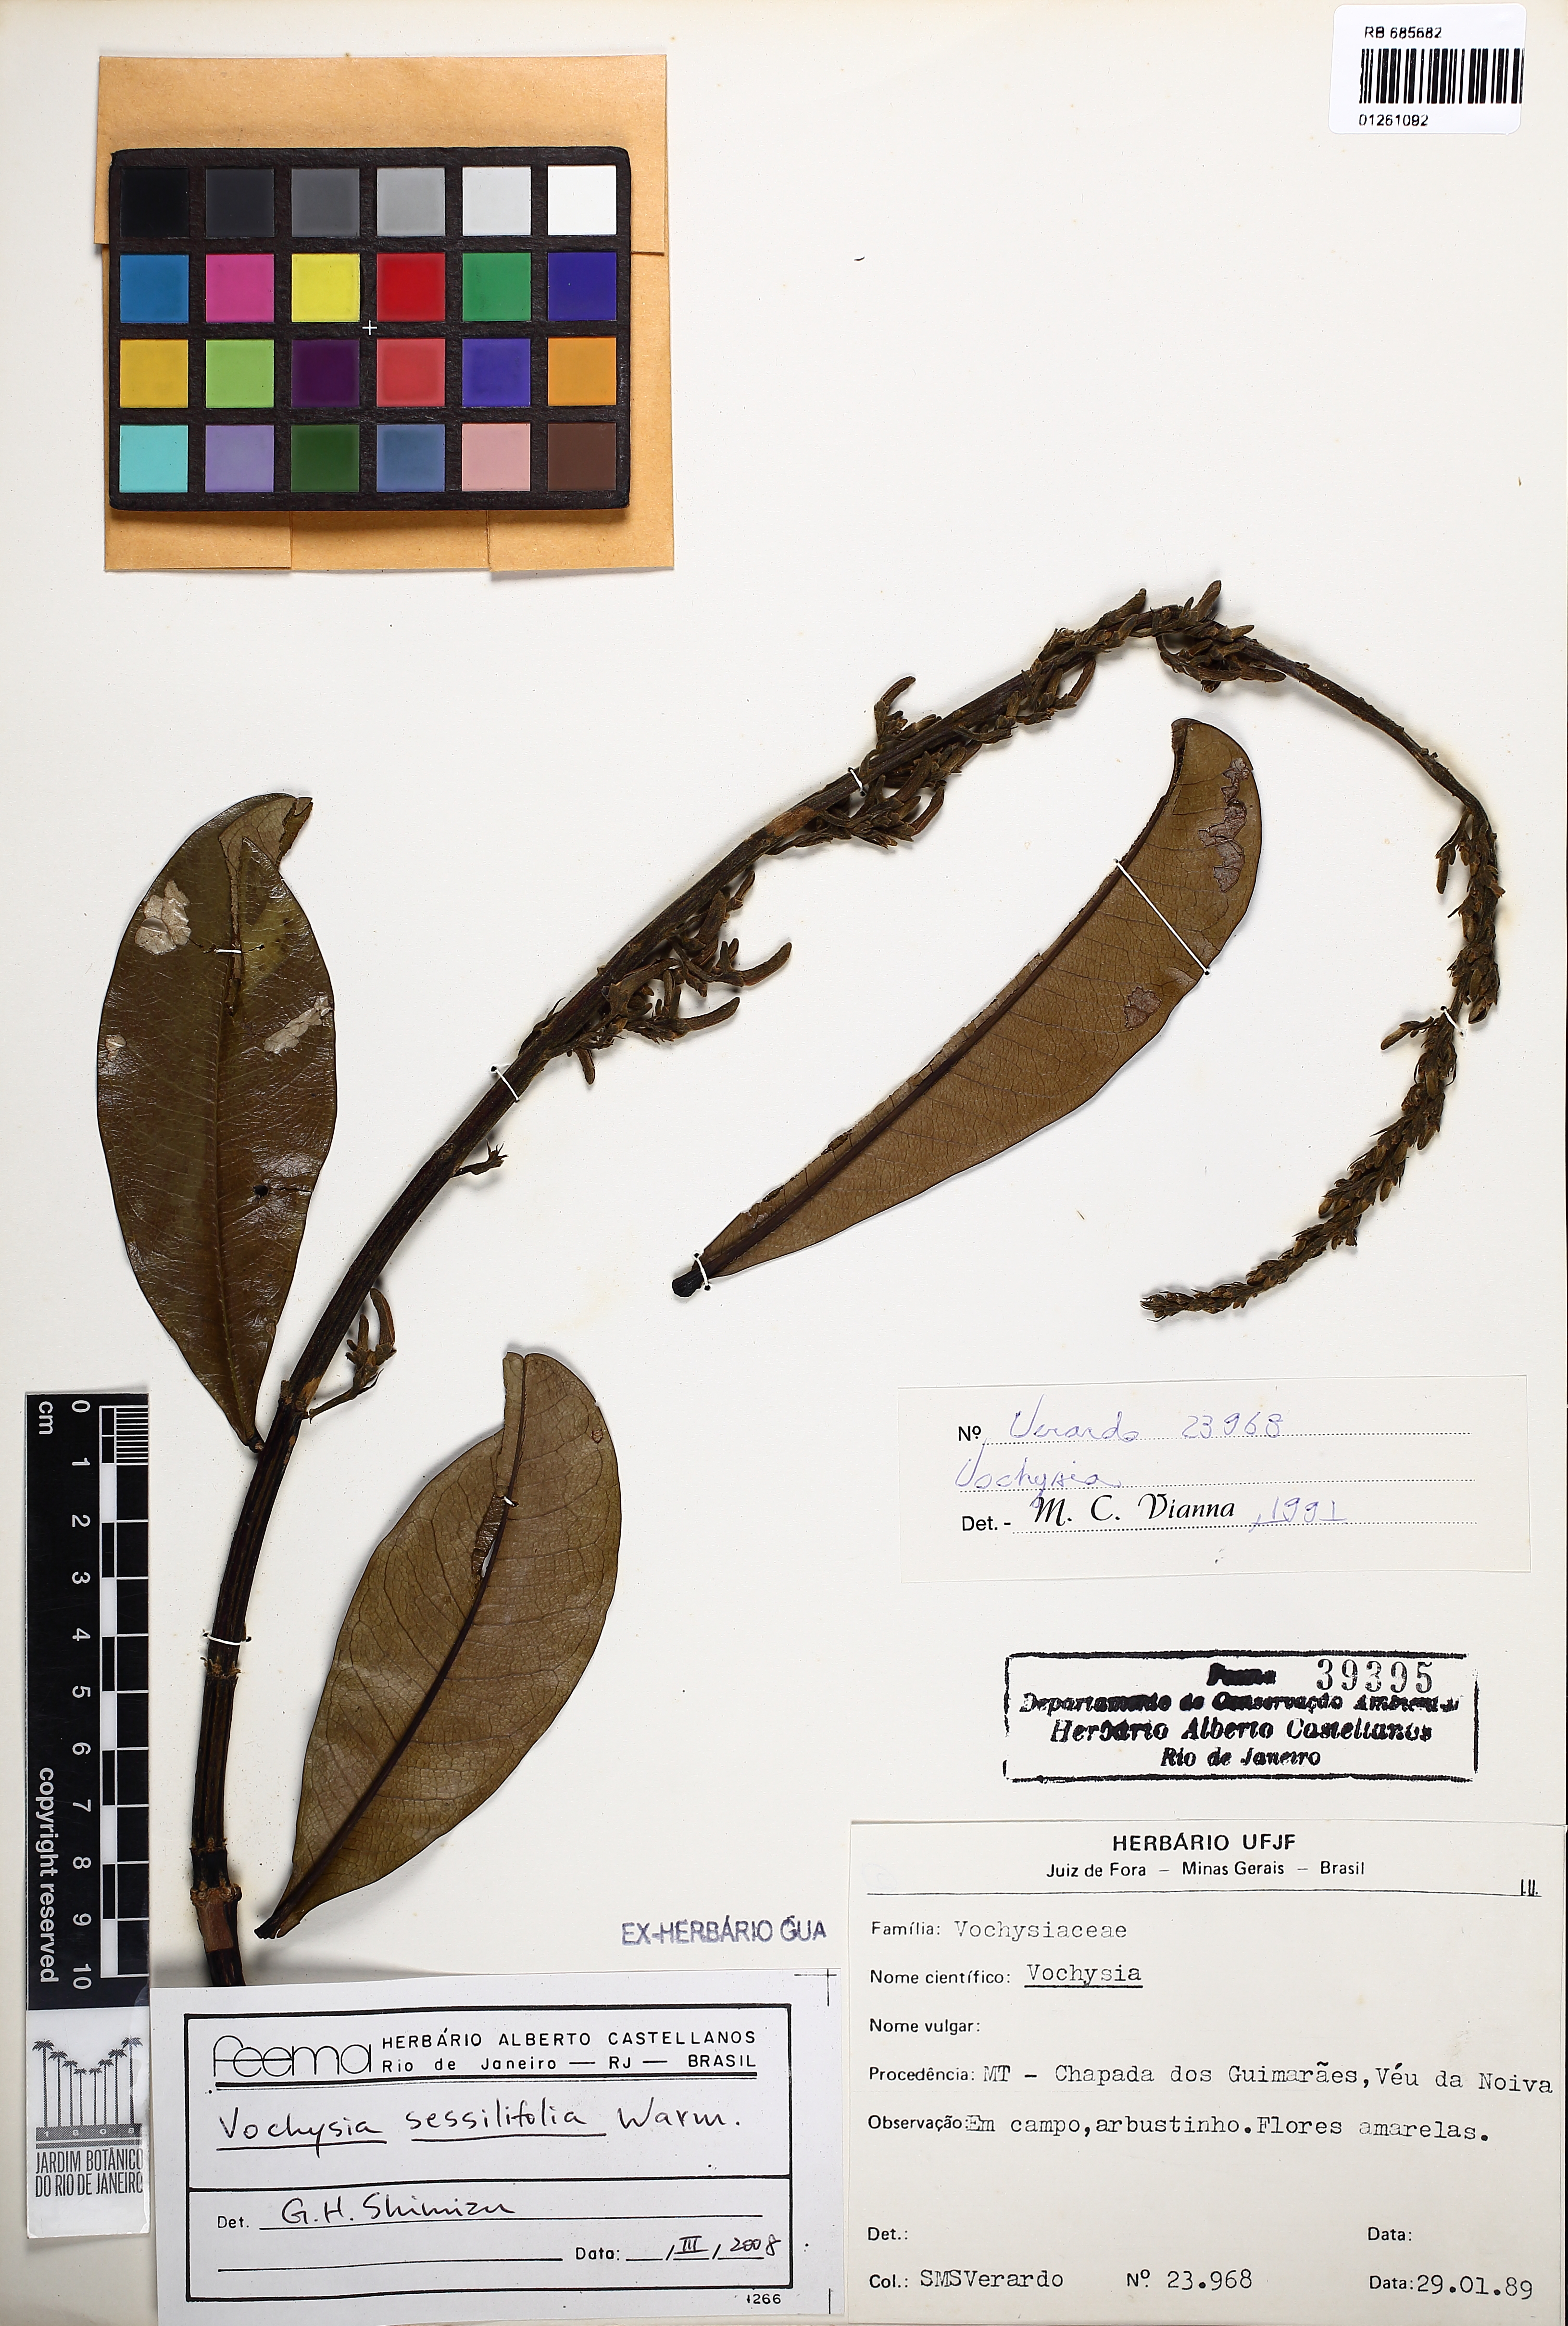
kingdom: Plantae
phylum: Tracheophyta
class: Magnoliopsida
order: Myrtales
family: Vochysiaceae
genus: Vochysia
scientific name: Vochysia sessilifolia
